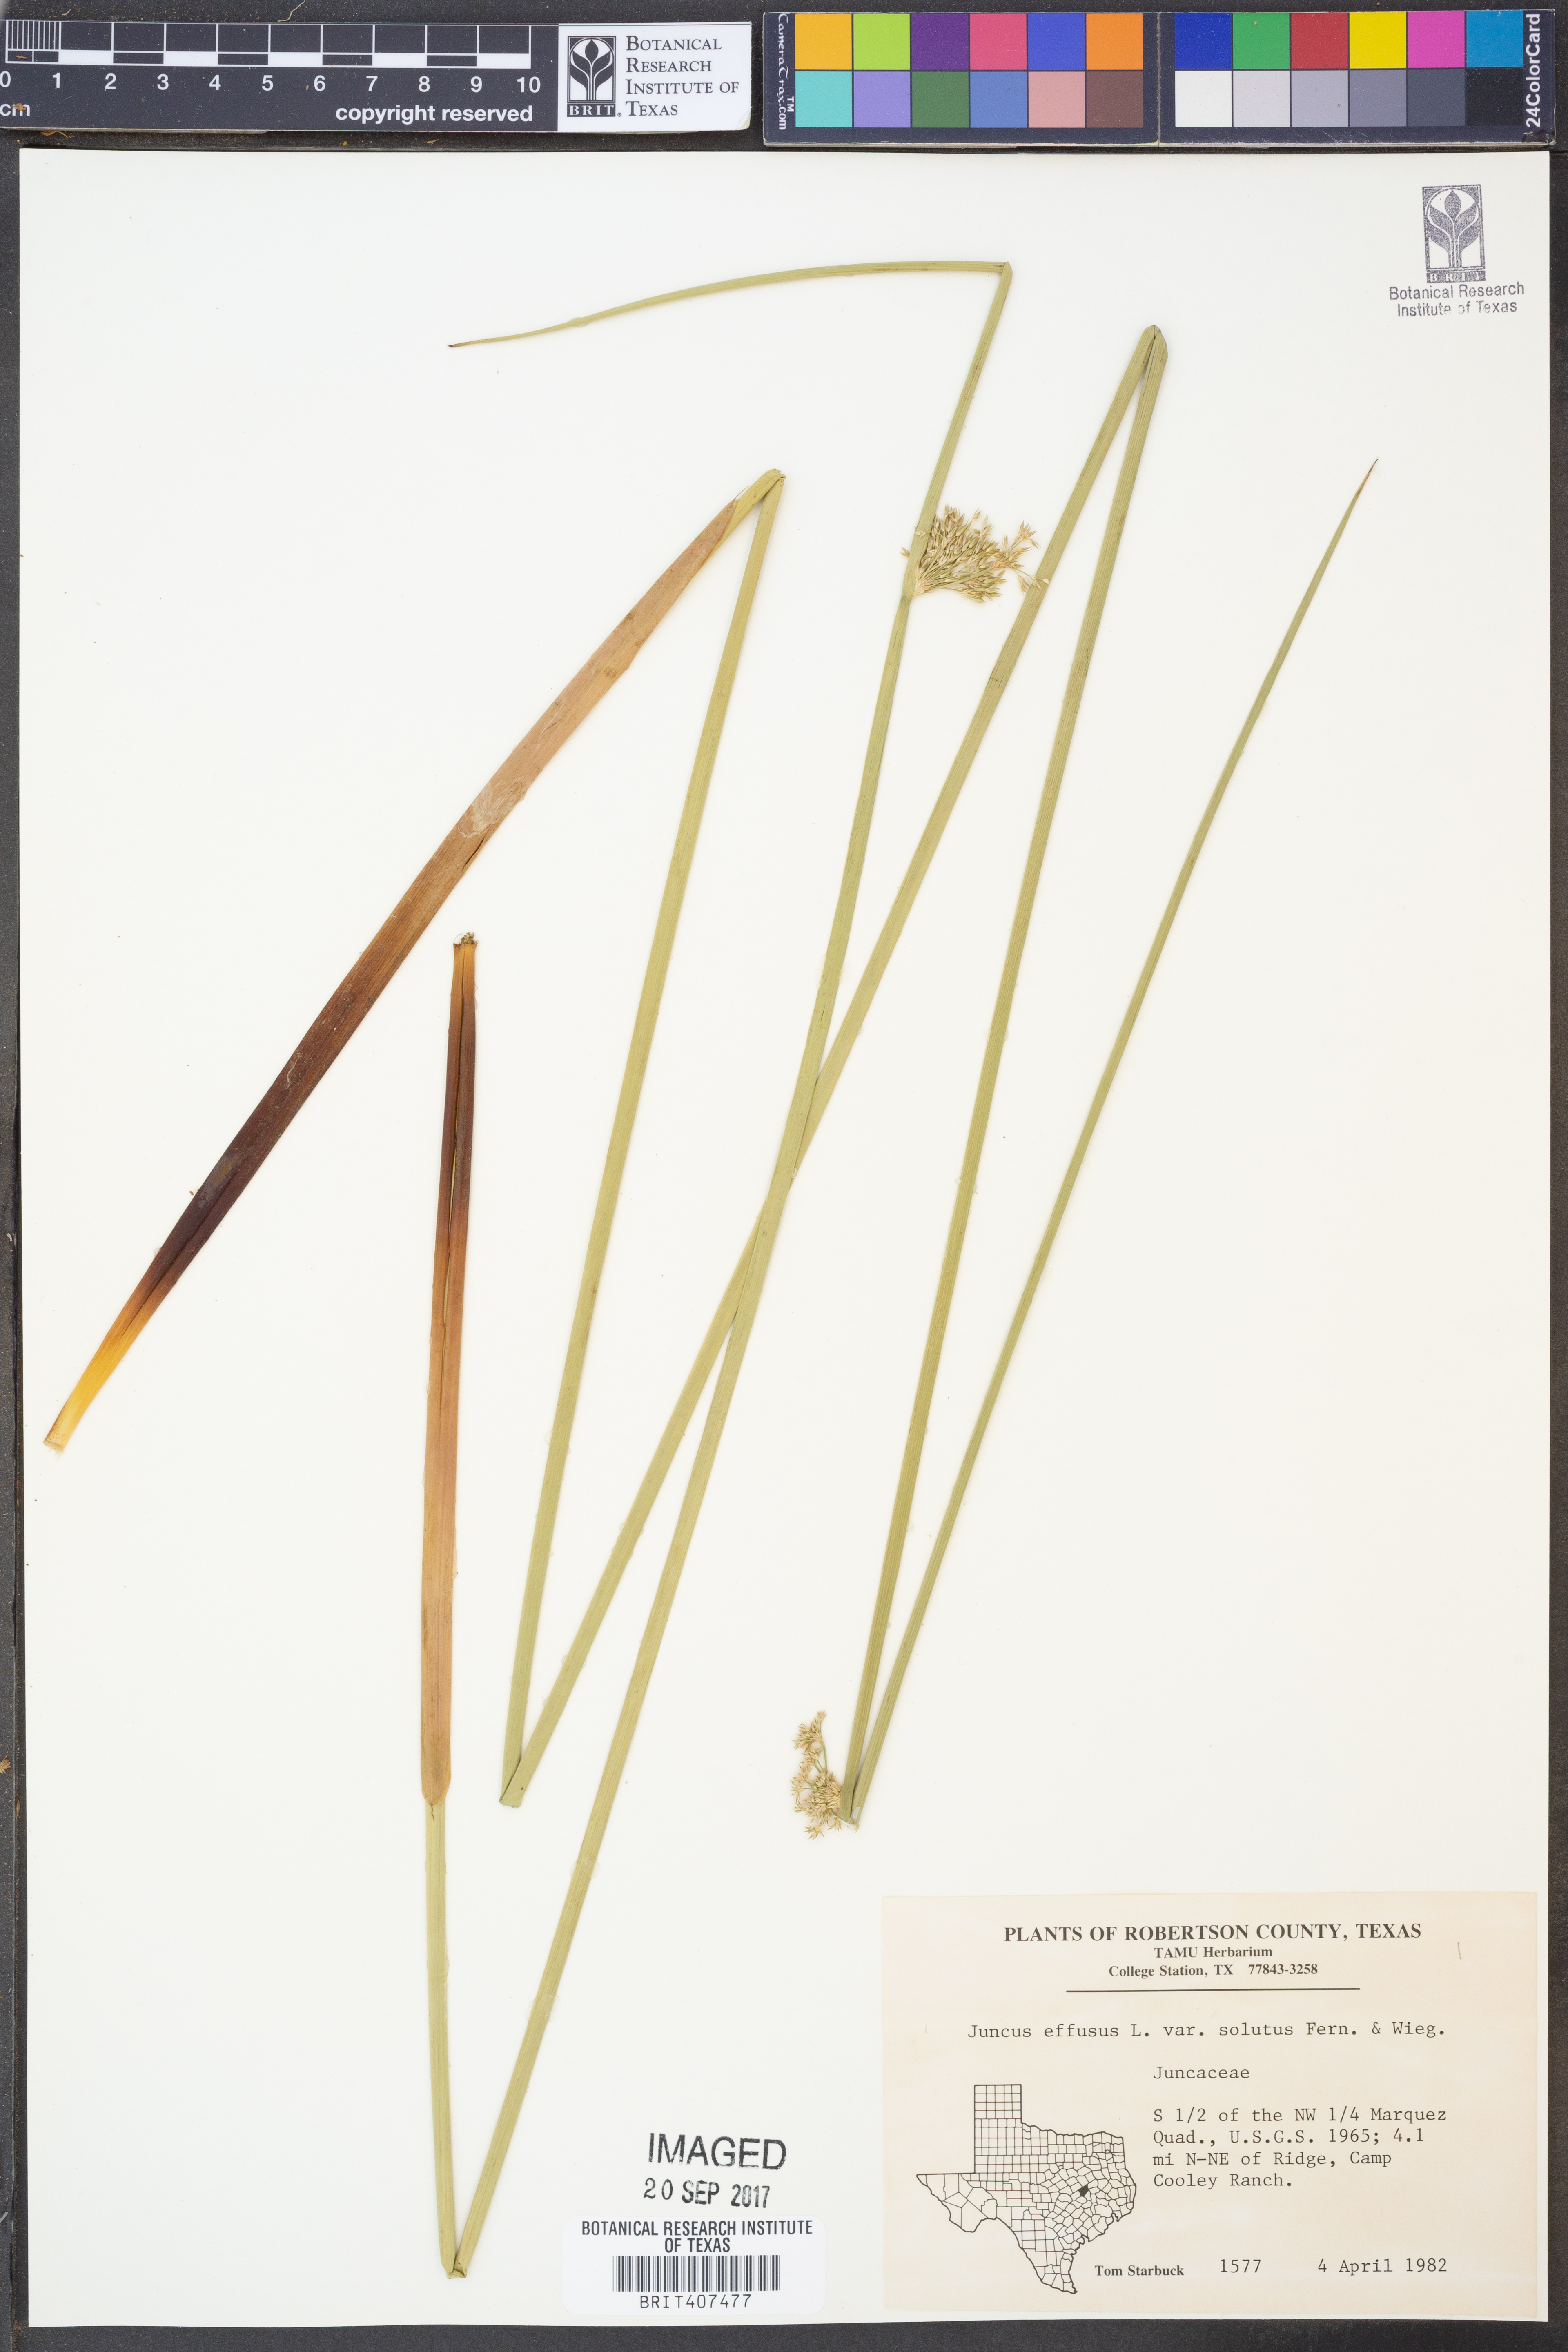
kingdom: Plantae
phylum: Tracheophyta
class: Liliopsida
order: Poales
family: Juncaceae
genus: Juncus
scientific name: Juncus effusus
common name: Soft rush
